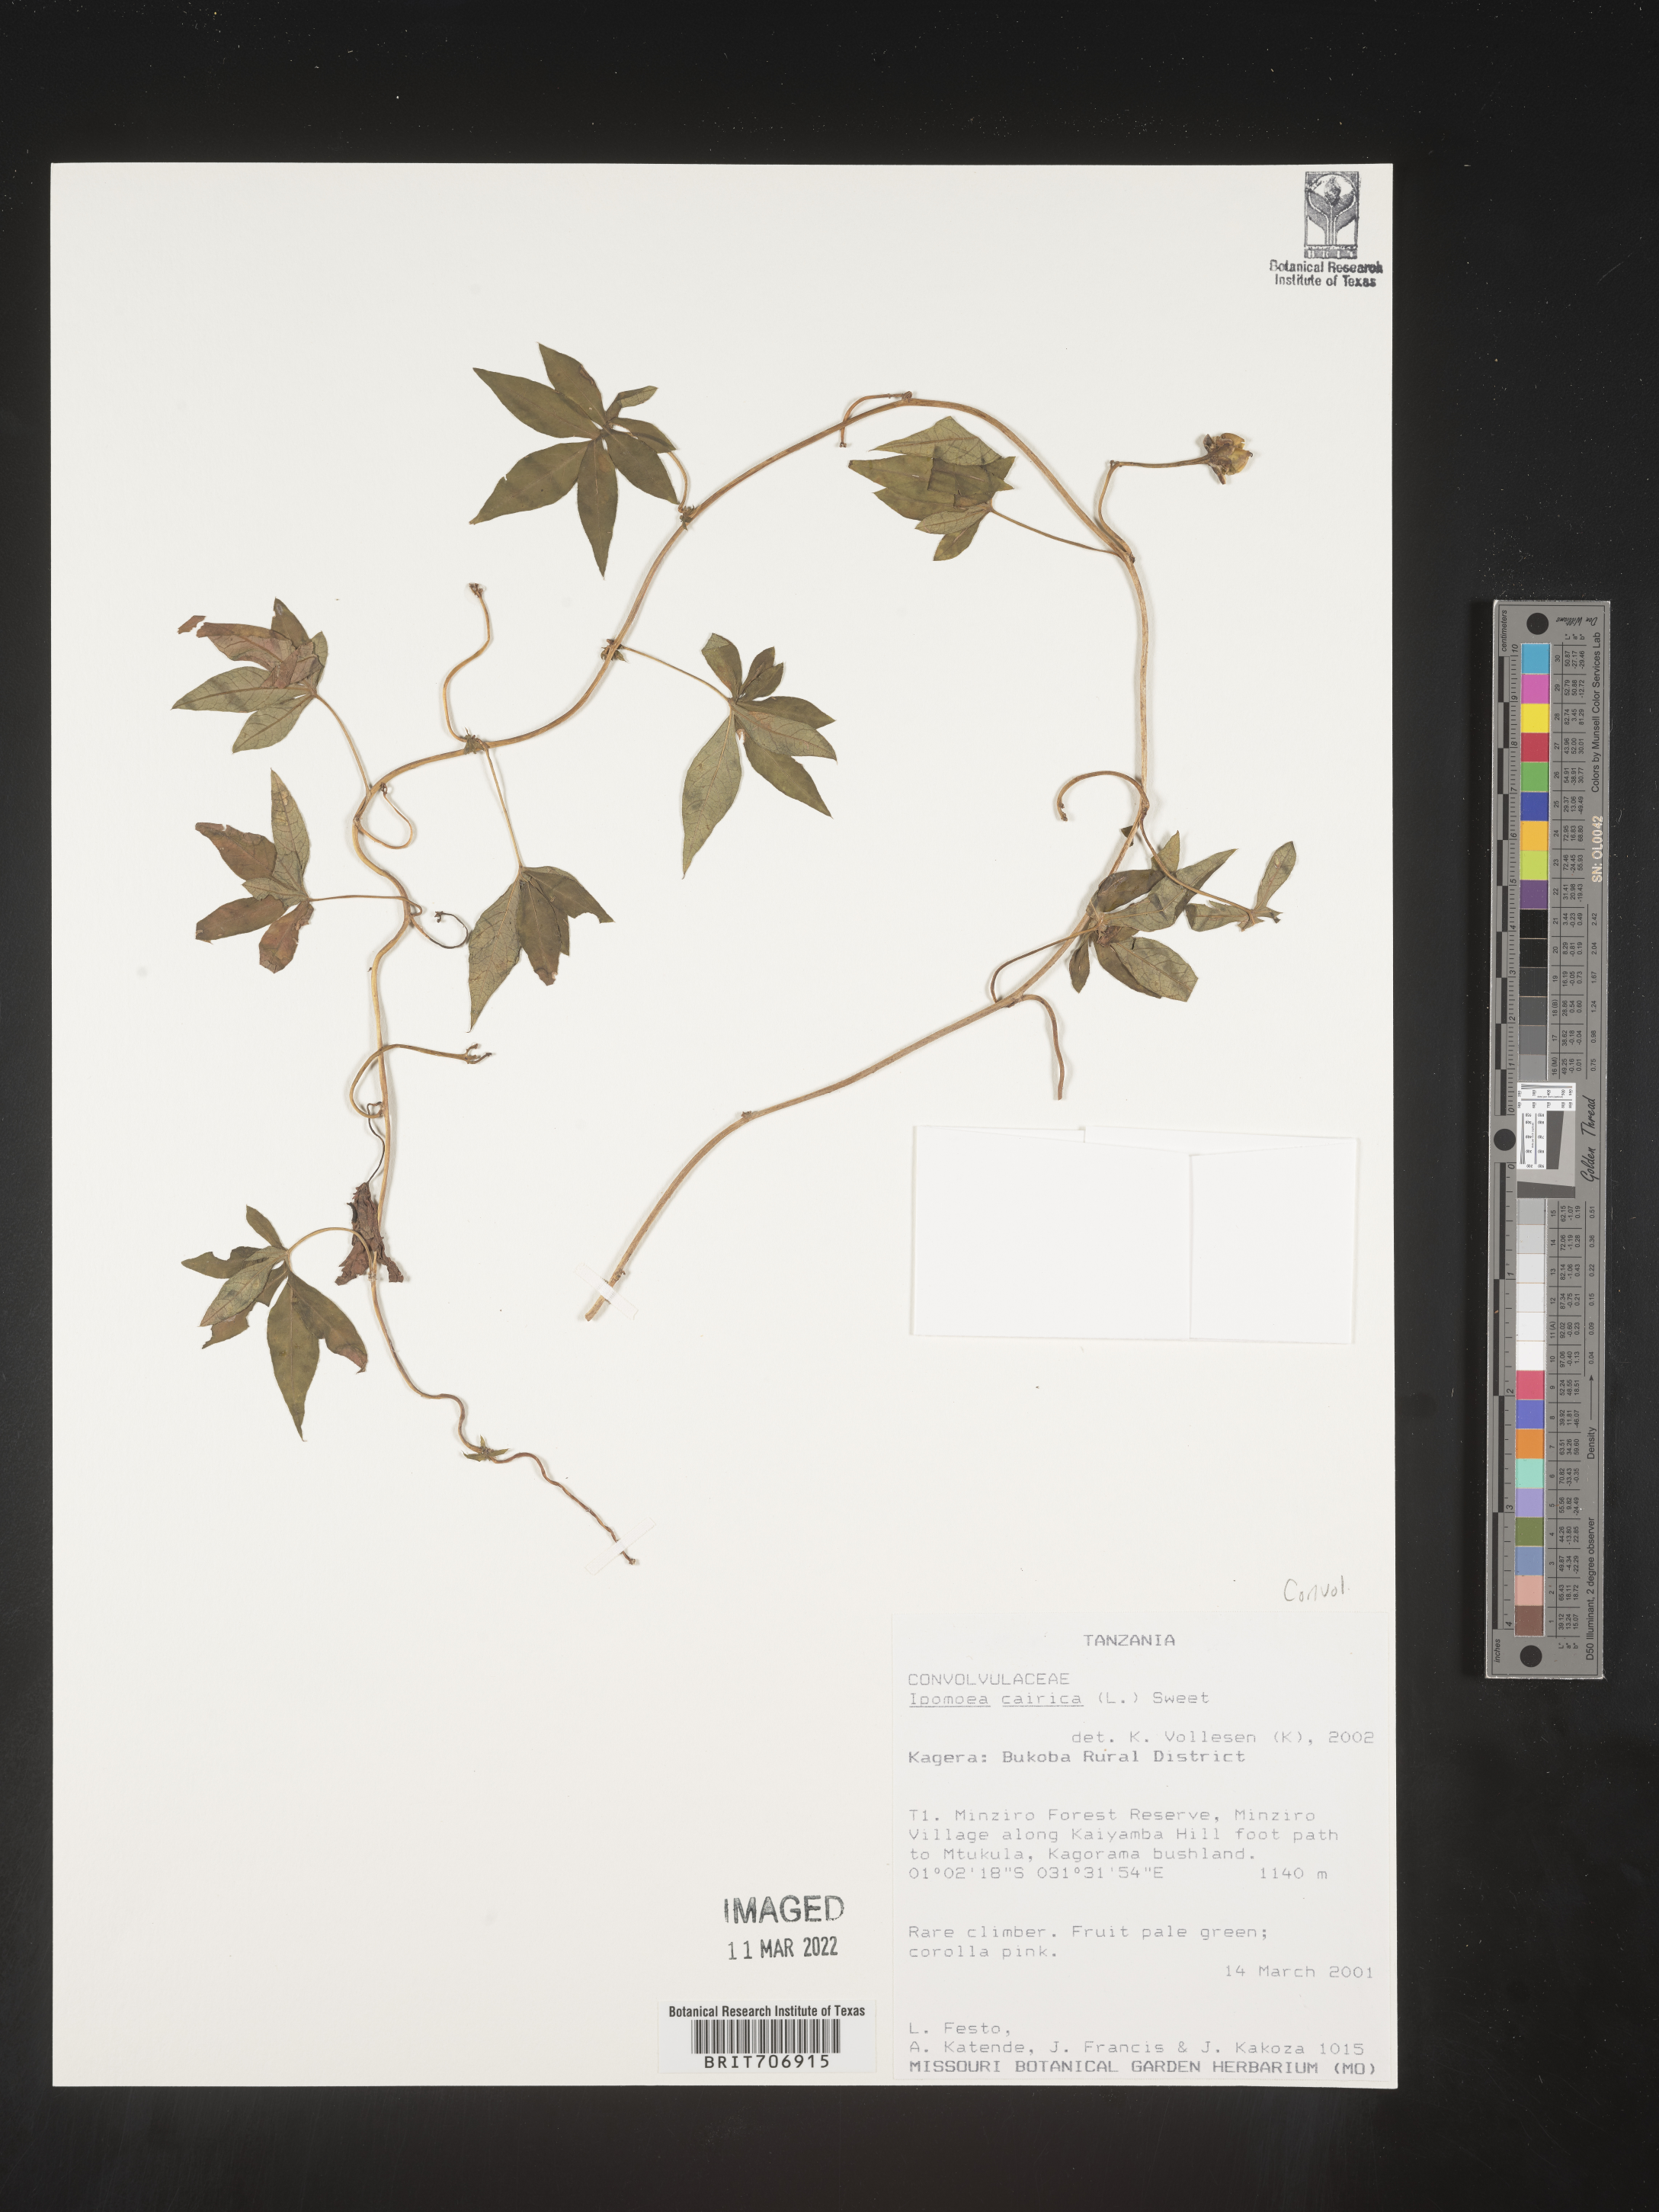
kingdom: Plantae
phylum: Tracheophyta
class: Magnoliopsida
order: Solanales
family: Convolvulaceae
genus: Ipomoea
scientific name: Ipomoea
